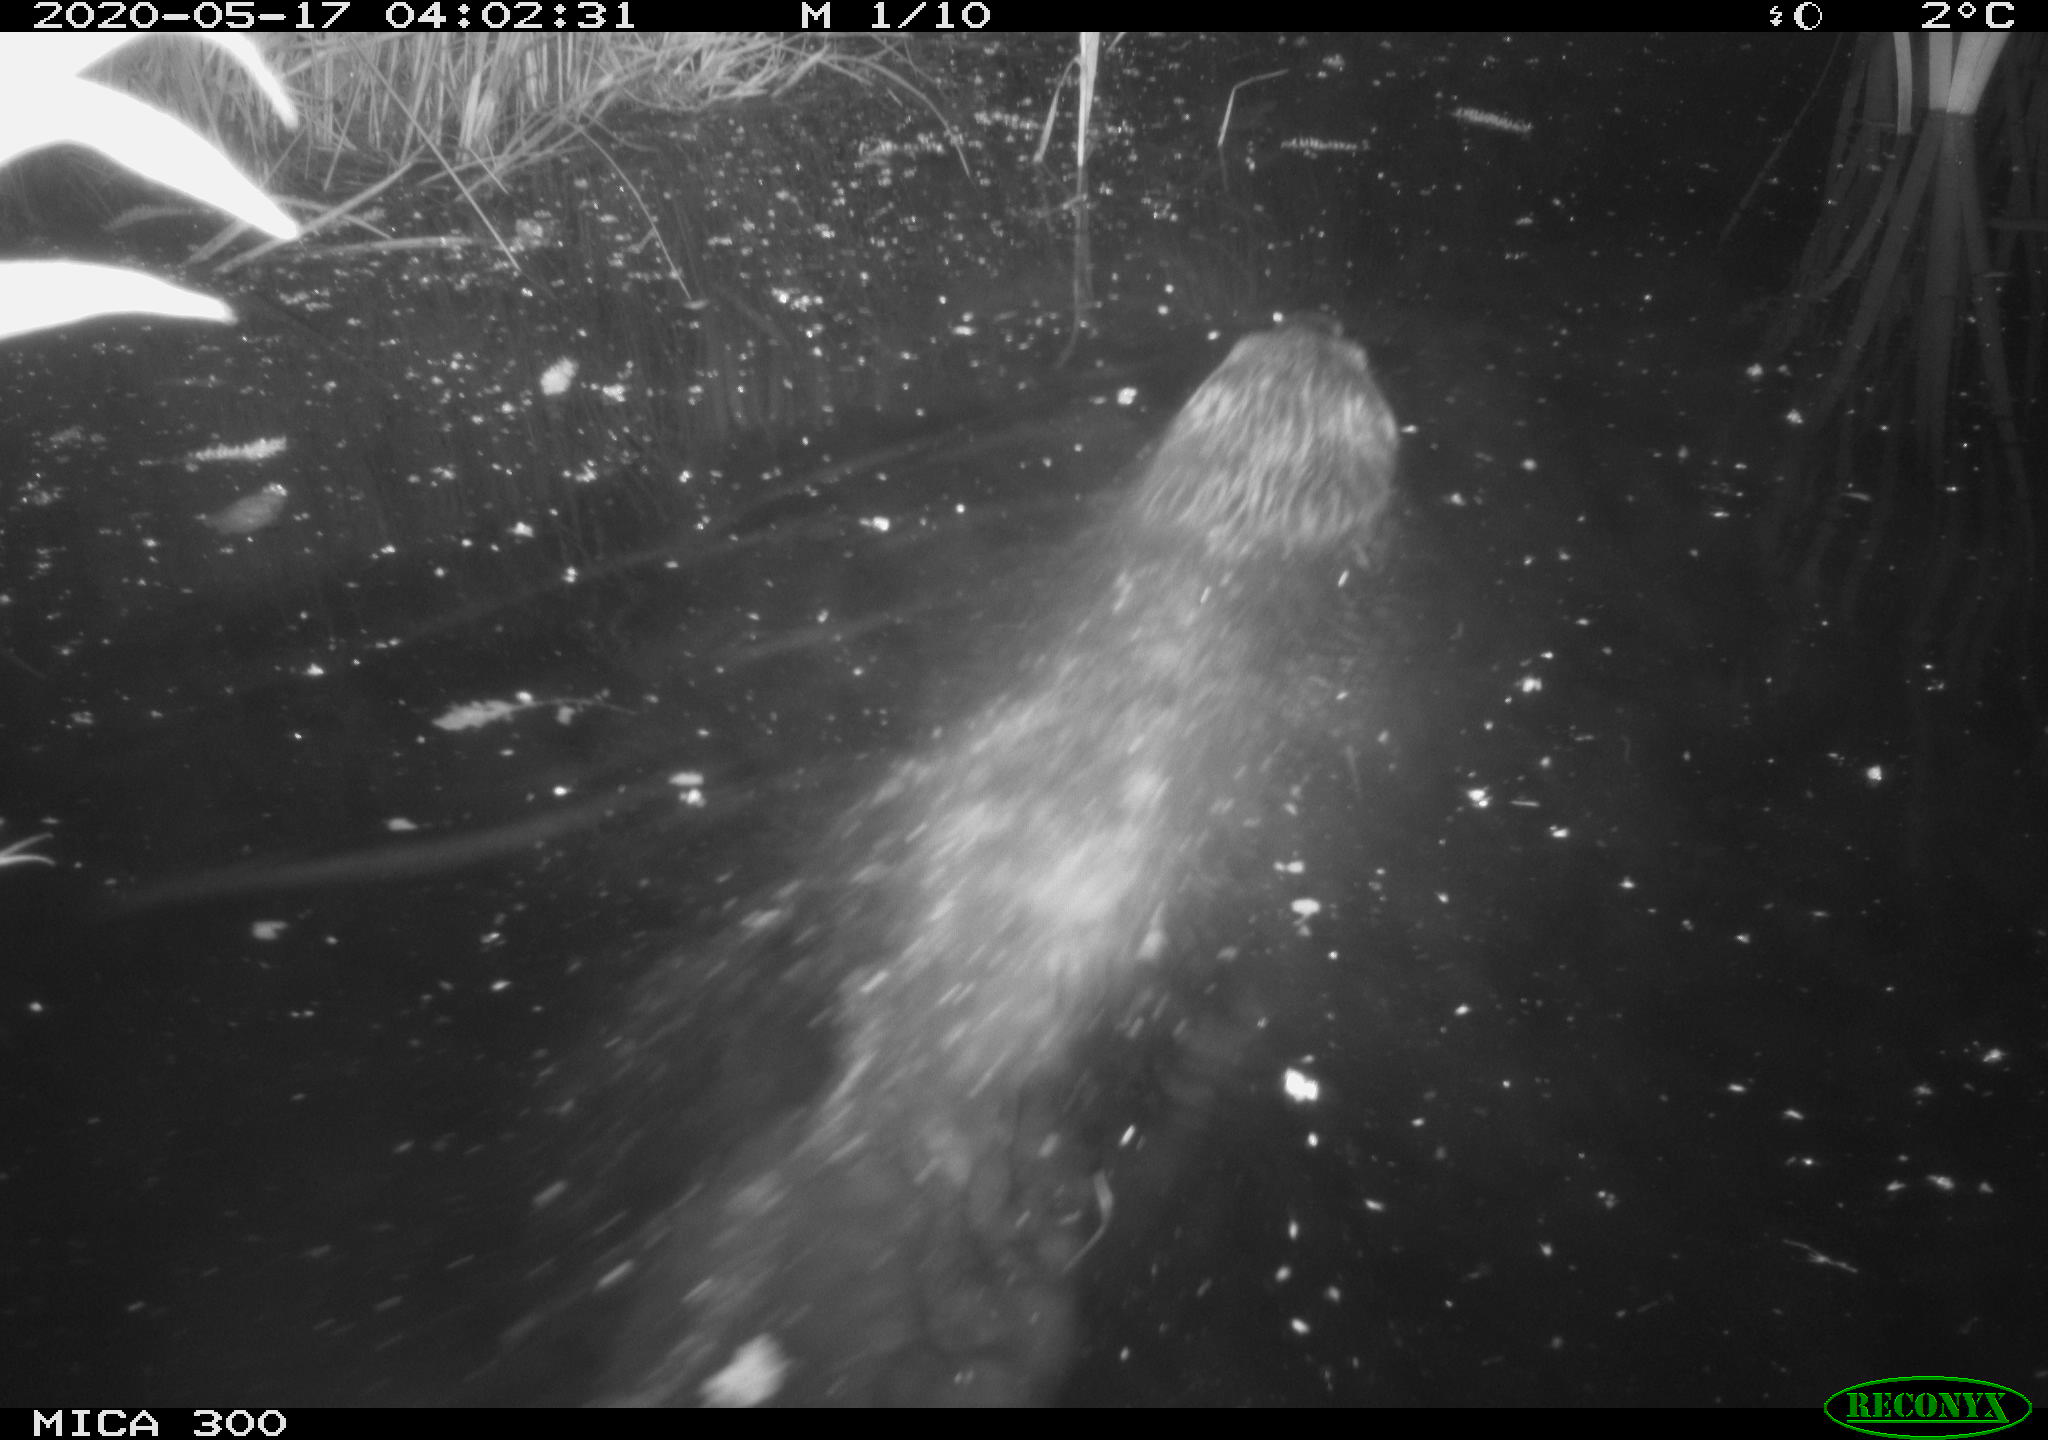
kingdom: Animalia
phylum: Chordata
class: Mammalia
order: Rodentia
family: Castoridae
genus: Castor
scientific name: Castor fiber
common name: Eurasian beaver
